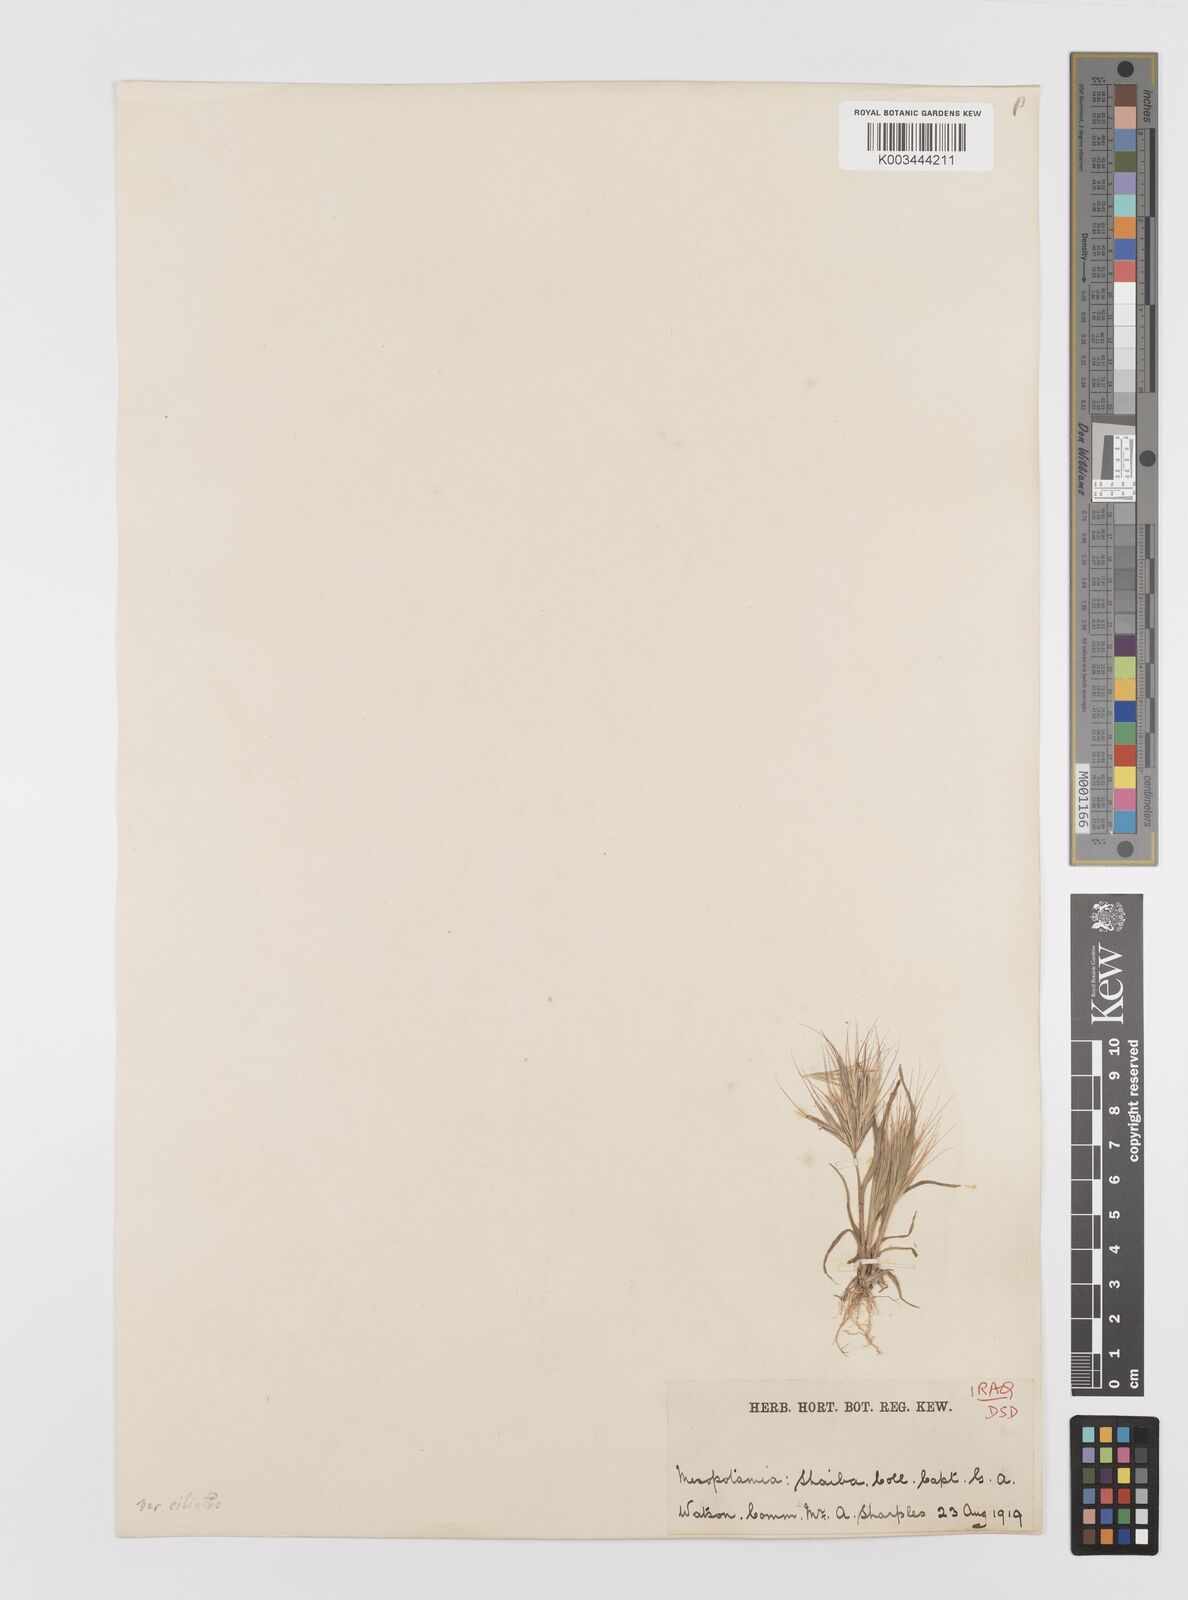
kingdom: Plantae
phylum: Tracheophyta
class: Liliopsida
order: Poales
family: Poaceae
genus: Bromus
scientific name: Bromus madritensis
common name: Compact brome
